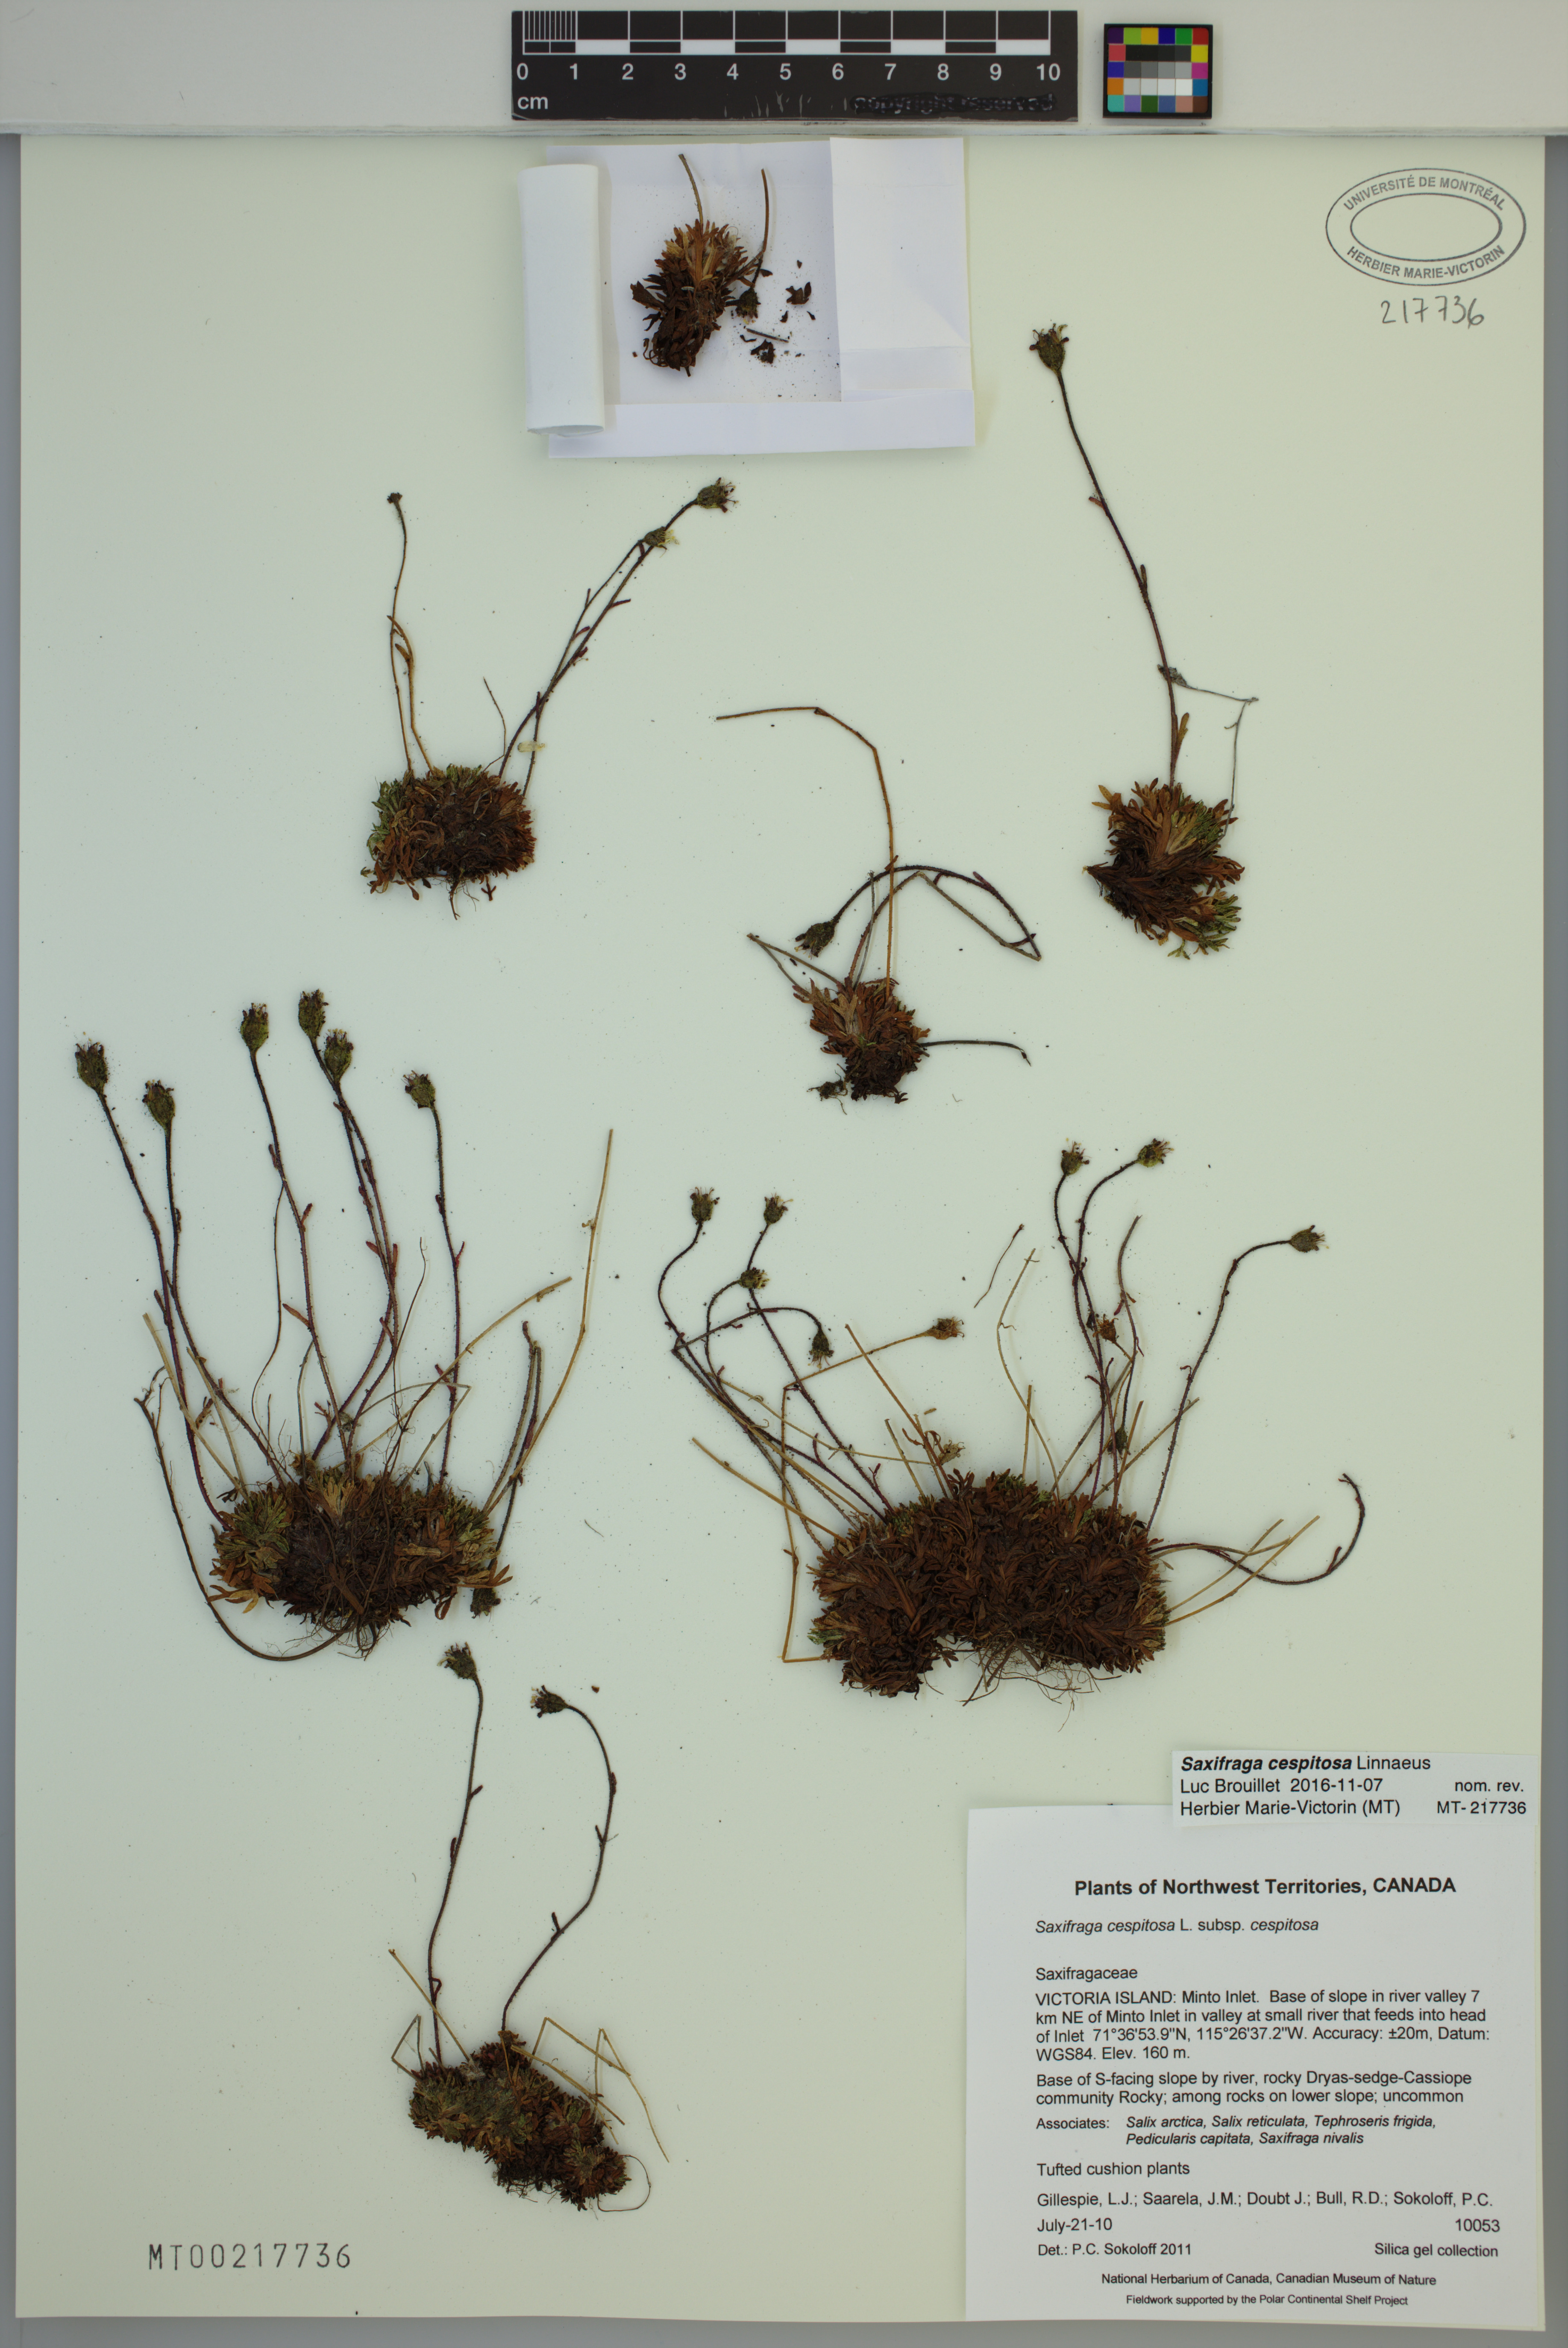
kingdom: Plantae
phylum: Tracheophyta
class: Magnoliopsida
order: Saxifragales
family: Saxifragaceae
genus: Saxifraga
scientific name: Saxifraga cespitosa
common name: Tufted saxifrage
